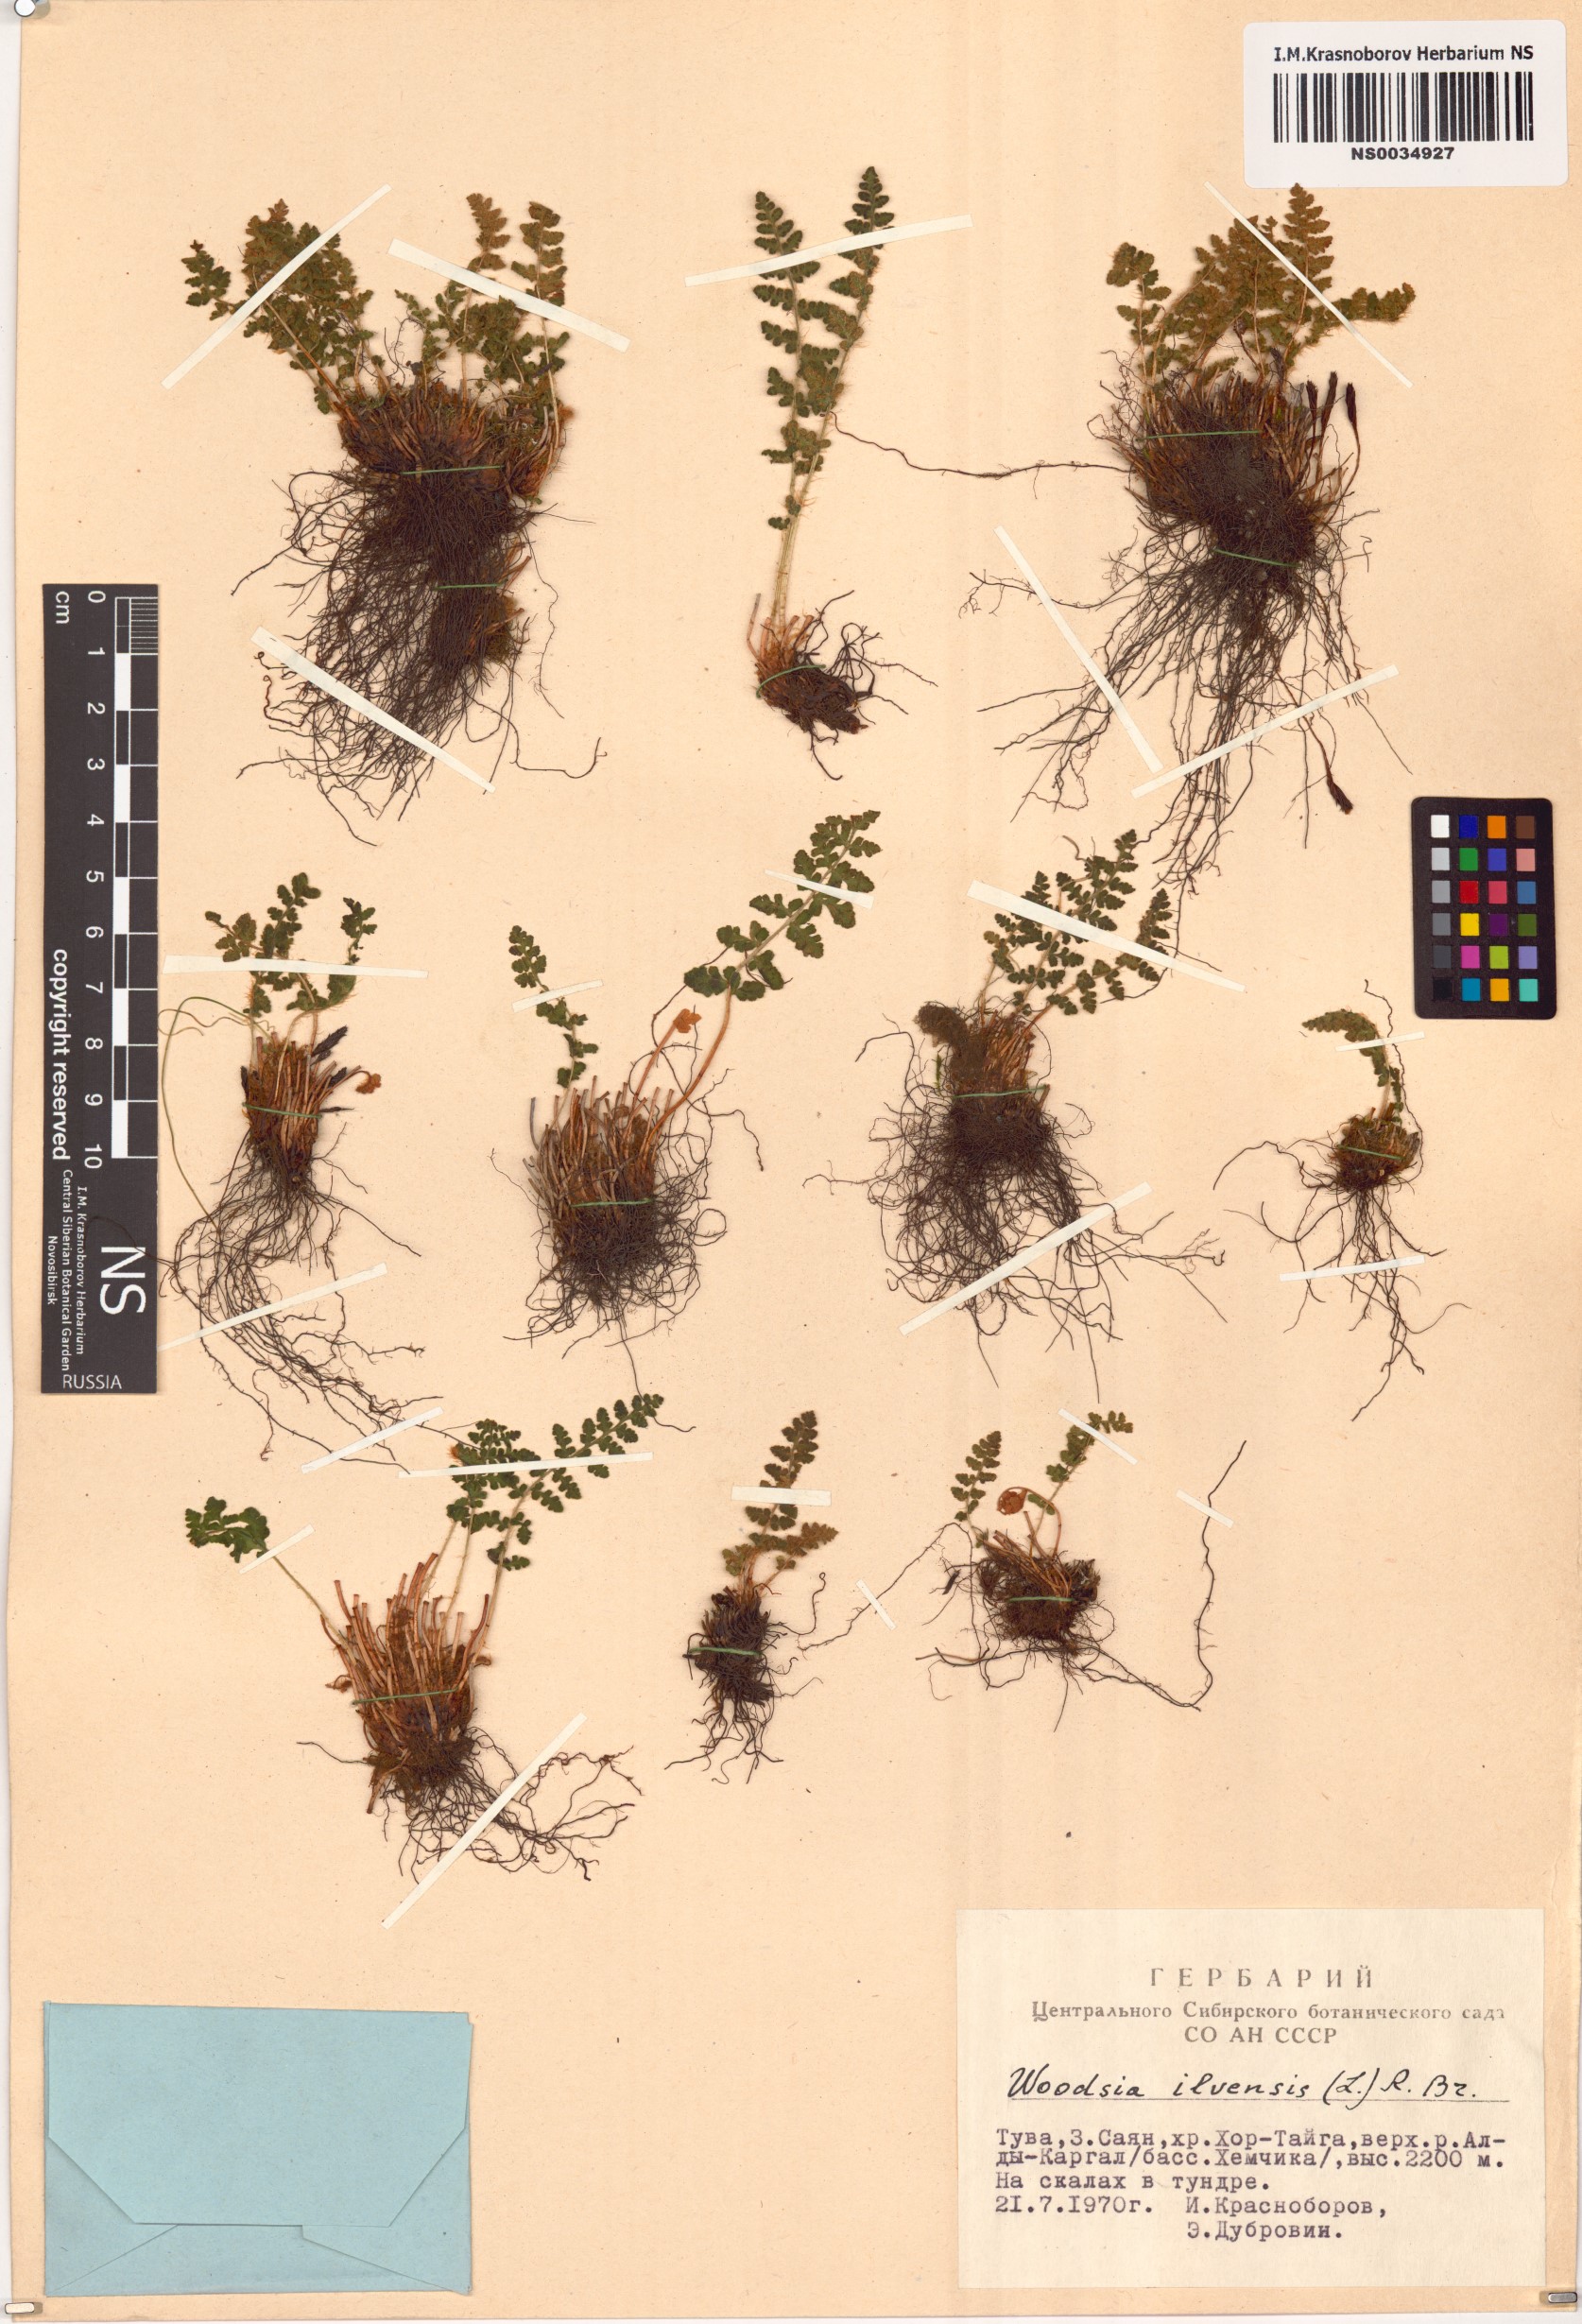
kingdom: Plantae
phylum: Tracheophyta
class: Polypodiopsida
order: Polypodiales
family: Woodsiaceae
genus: Woodsia
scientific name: Woodsia ilvensis
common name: Fragrant woodsia
